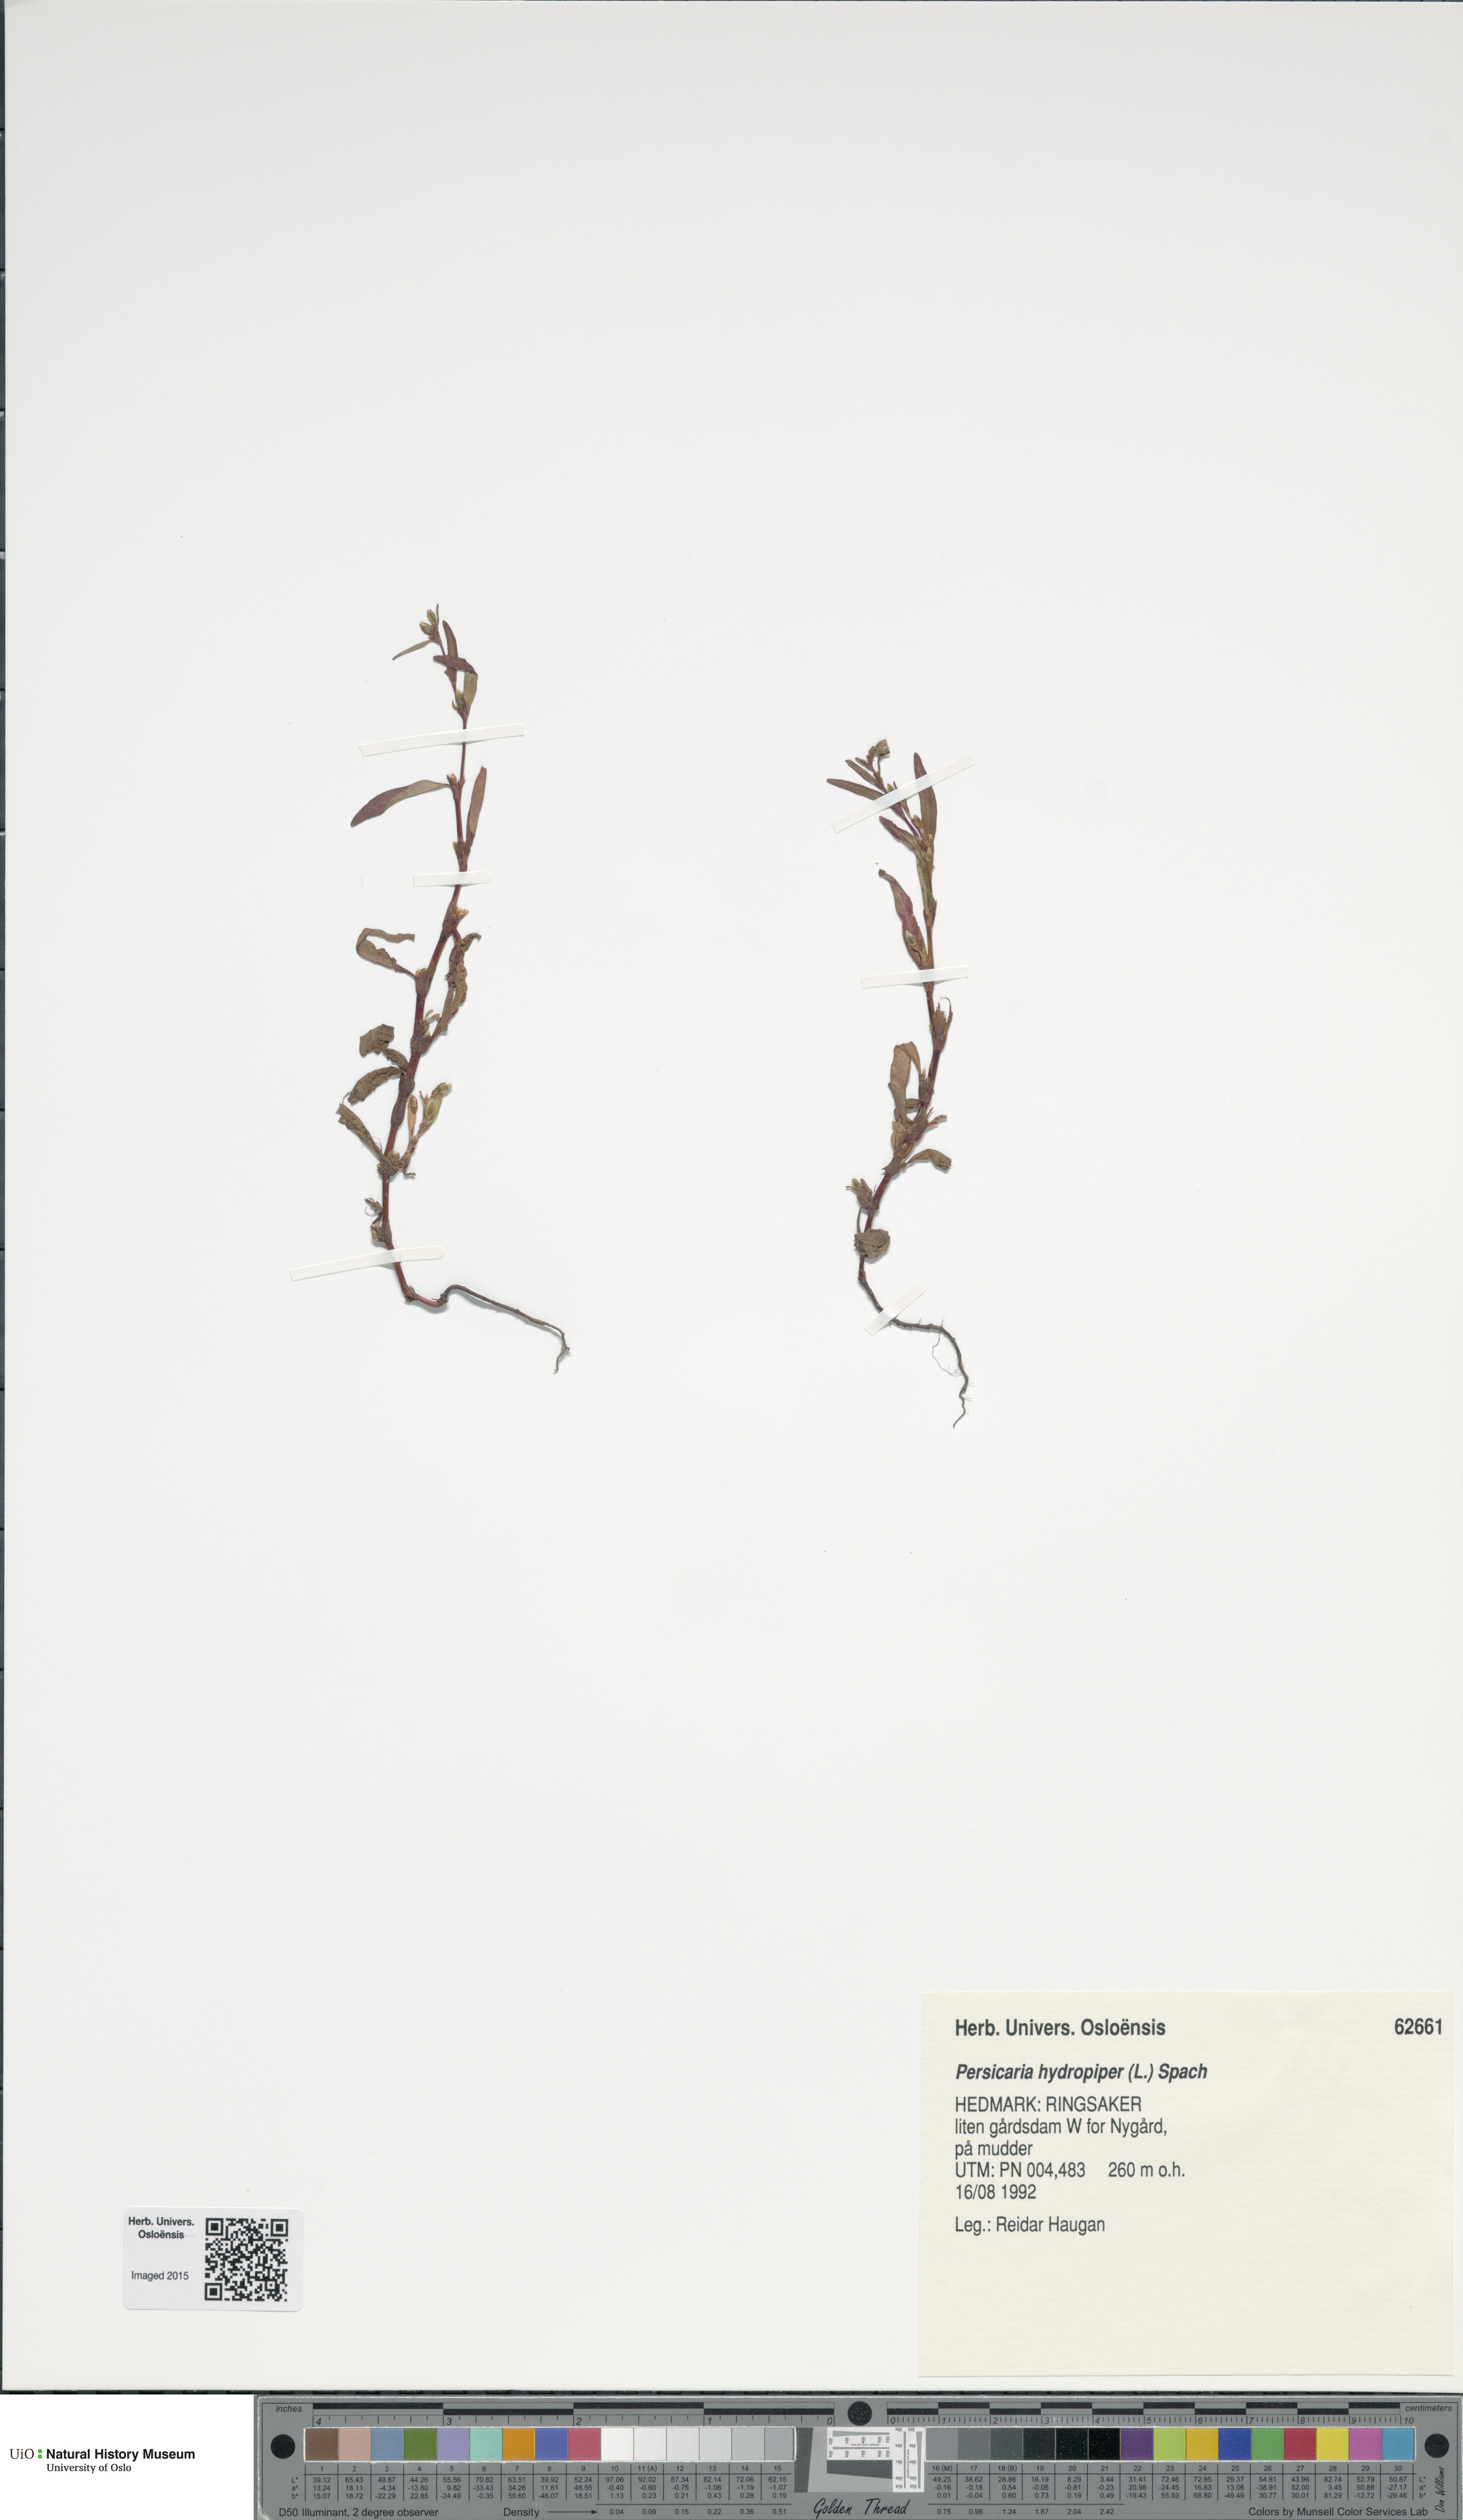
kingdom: Plantae
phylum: Tracheophyta
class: Magnoliopsida
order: Caryophyllales
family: Polygonaceae
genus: Persicaria
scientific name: Persicaria hydropiper
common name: Water-pepper
